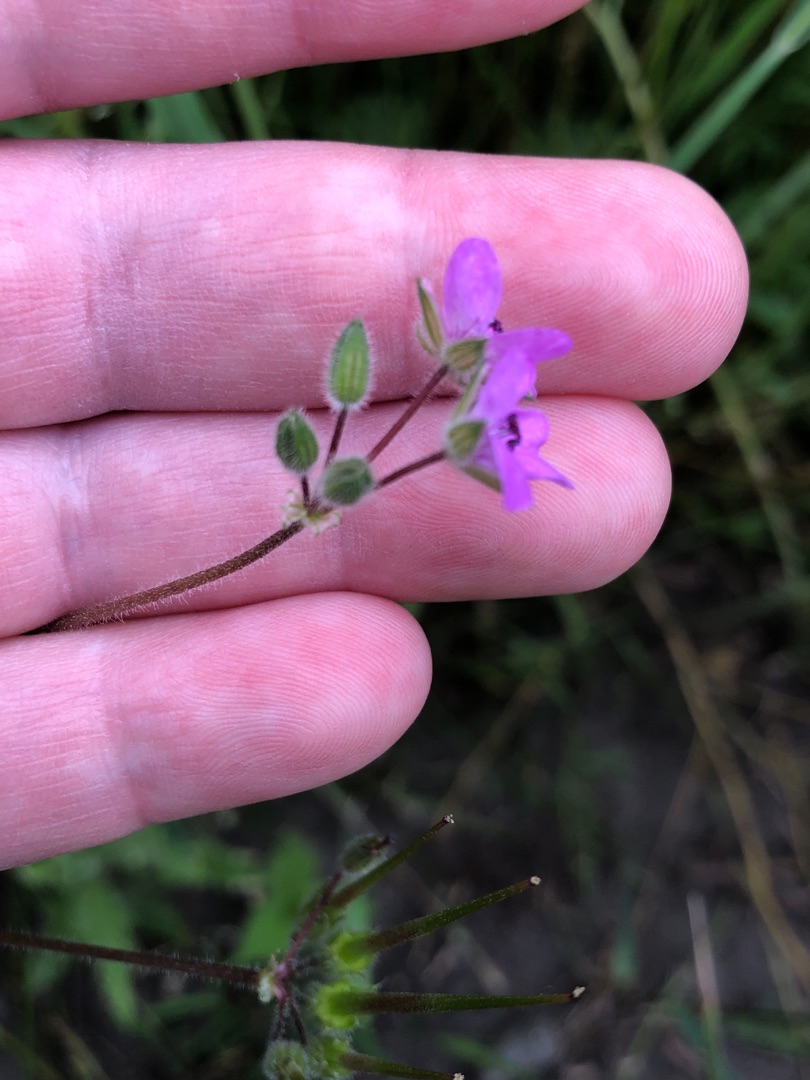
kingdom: Plantae
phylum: Tracheophyta
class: Magnoliopsida
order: Geraniales
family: Geraniaceae
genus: Erodium
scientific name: Erodium cicutarium
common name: Hejrenæb
